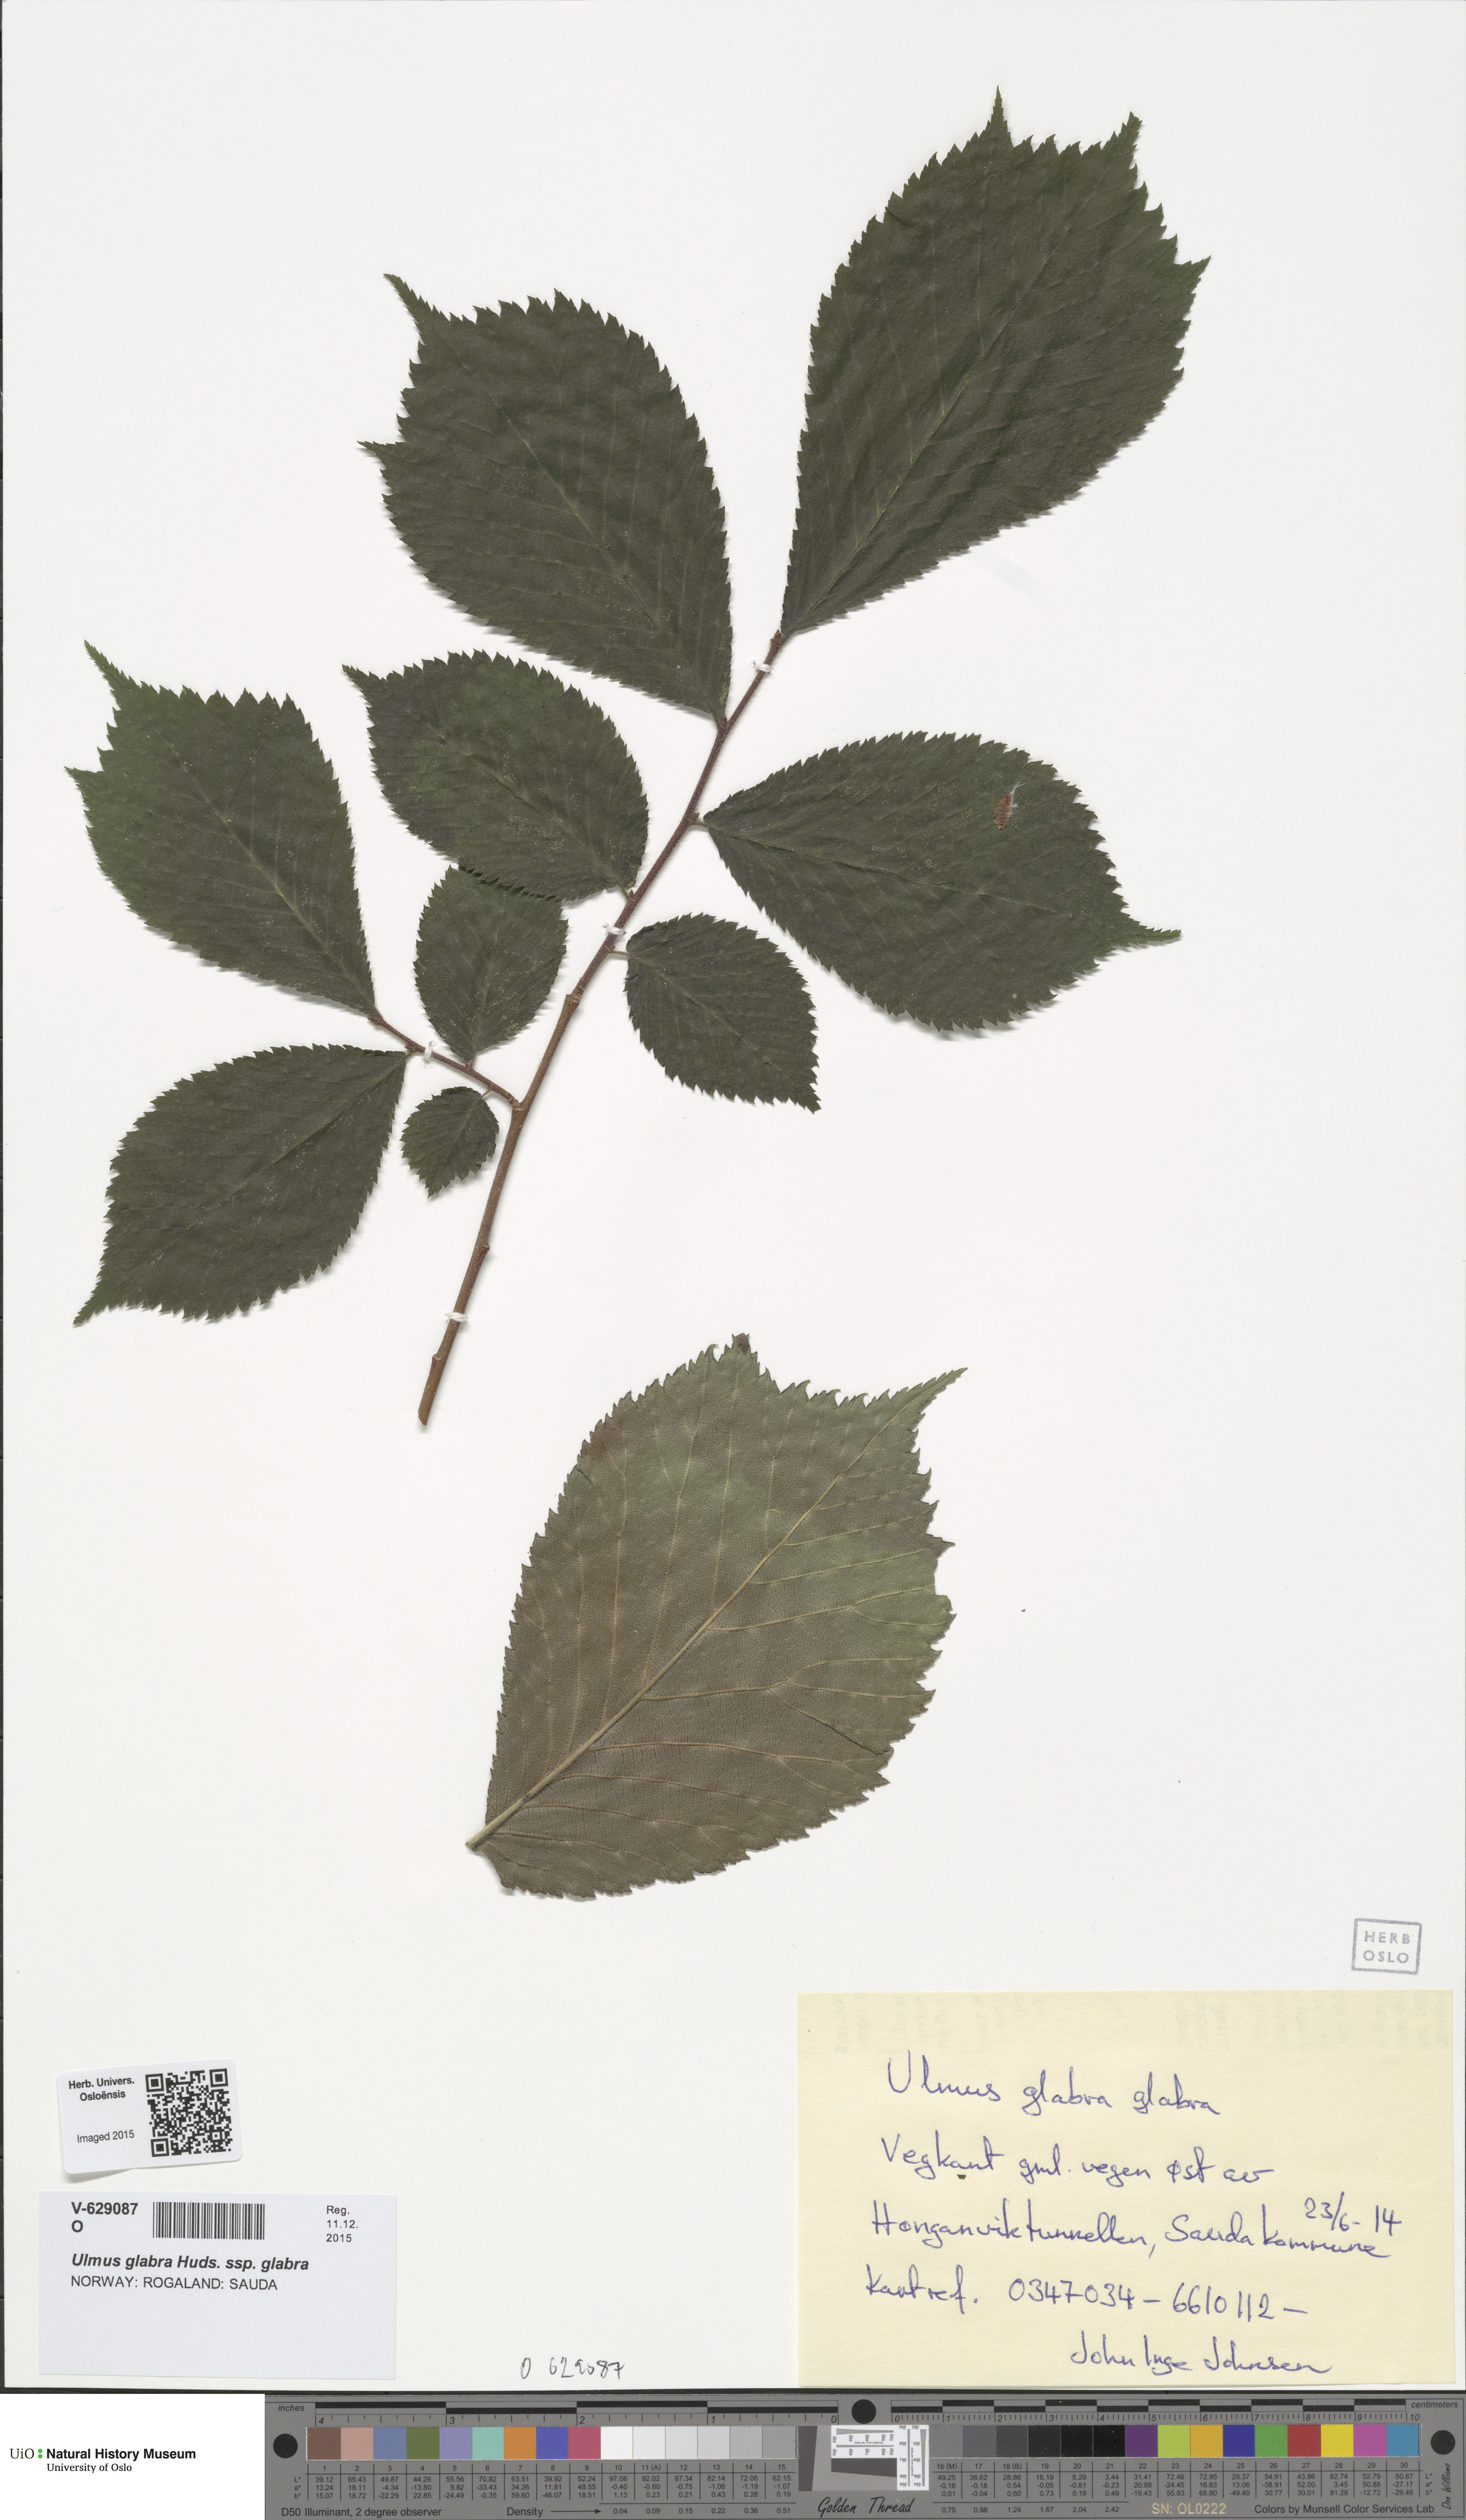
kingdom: Plantae
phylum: Tracheophyta
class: Magnoliopsida
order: Rosales
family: Ulmaceae
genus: Ulmus
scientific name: Ulmus glabra
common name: Wych elm
